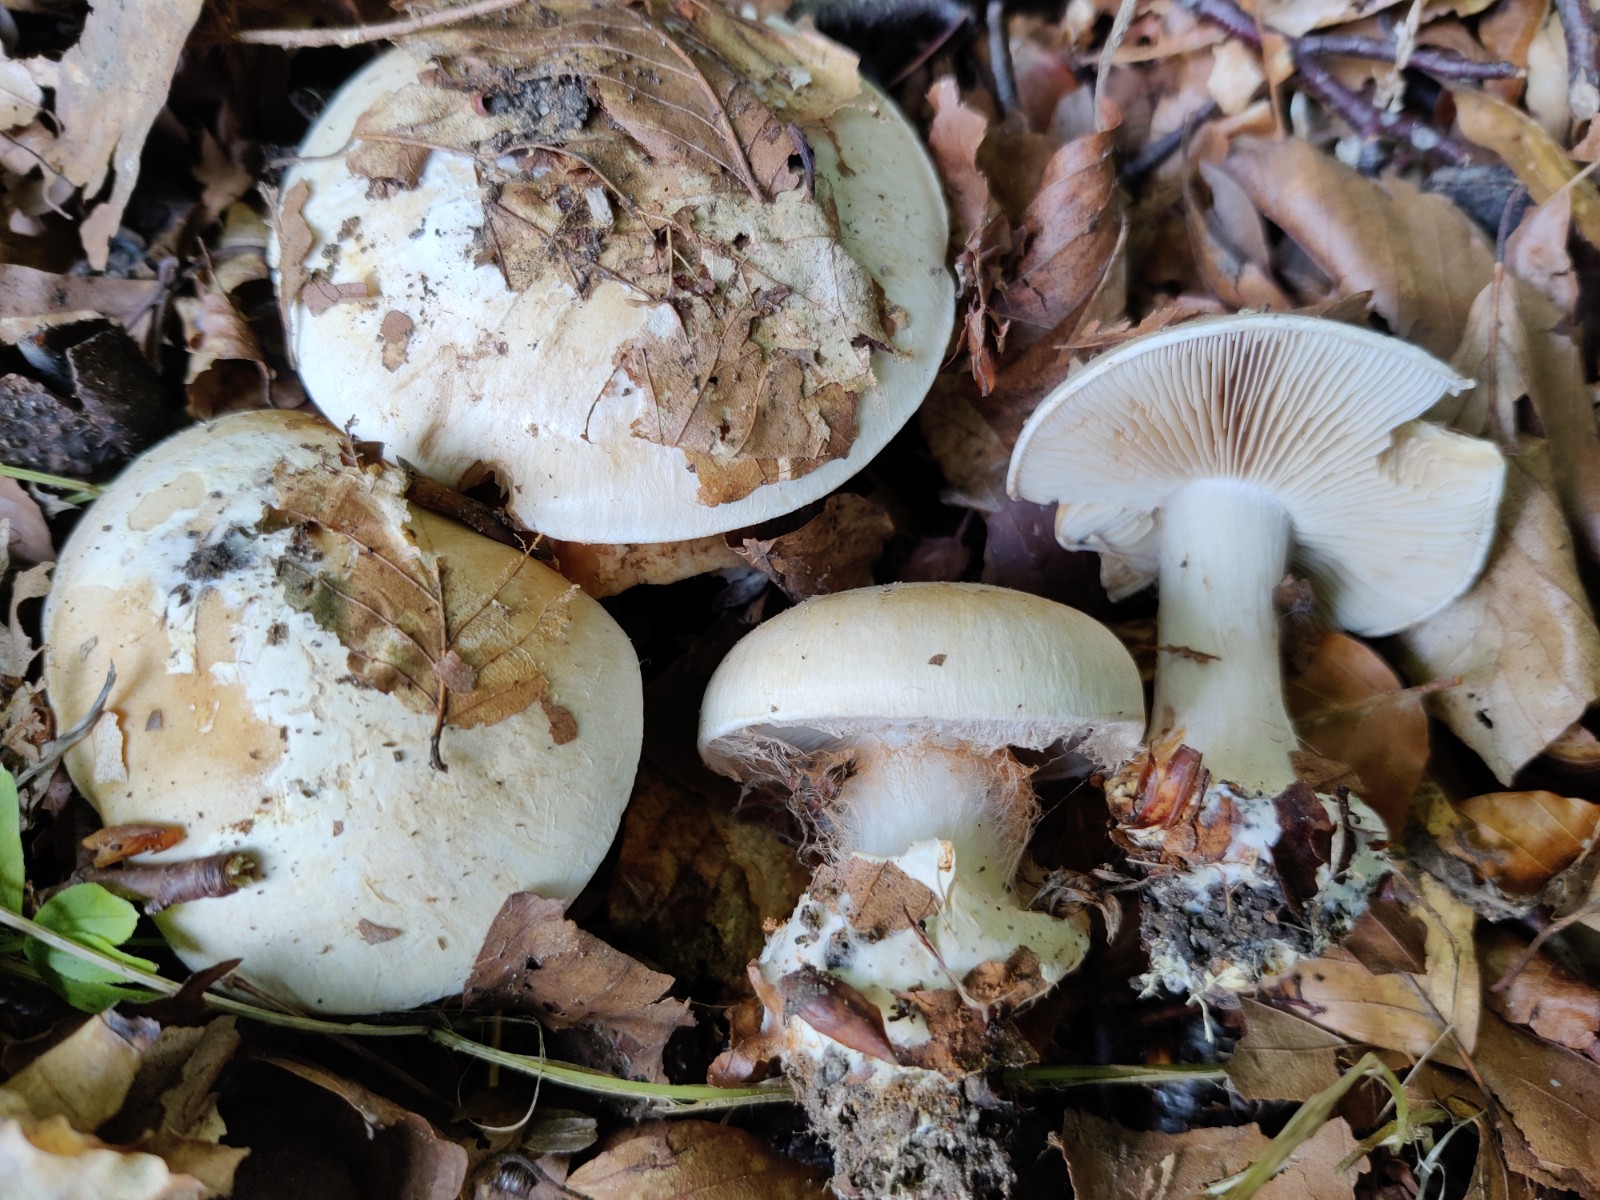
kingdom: Fungi
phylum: Basidiomycota
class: Agaricomycetes
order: Agaricales
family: Cortinariaceae
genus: Cortinarius
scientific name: Cortinarius foetens
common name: stribet slørhat
